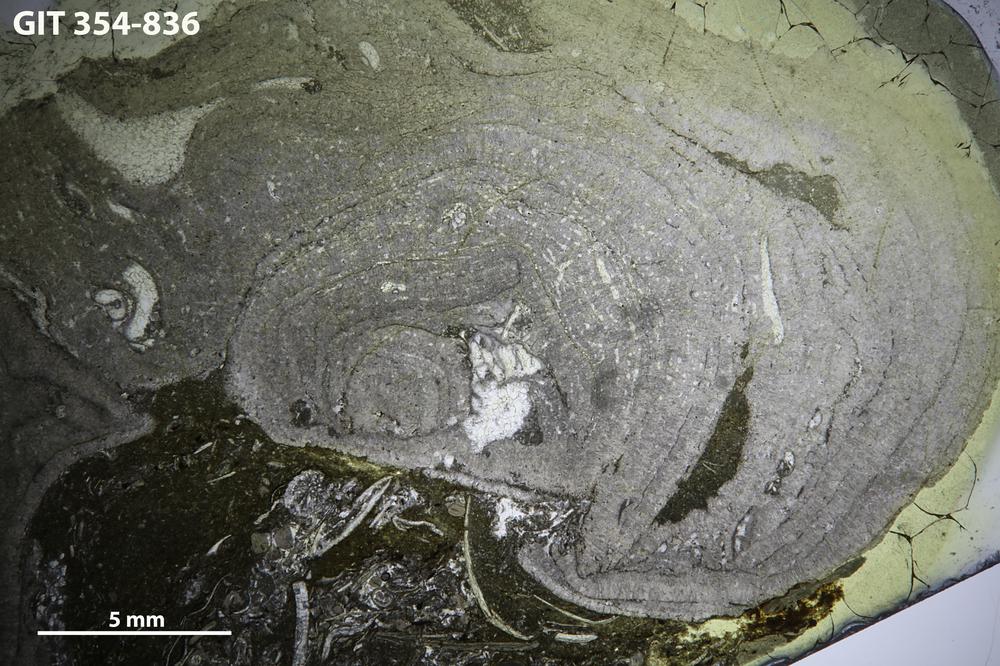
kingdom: Animalia
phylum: Porifera
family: Stromatoporidae
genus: Parallelostroma
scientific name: Parallelostroma
